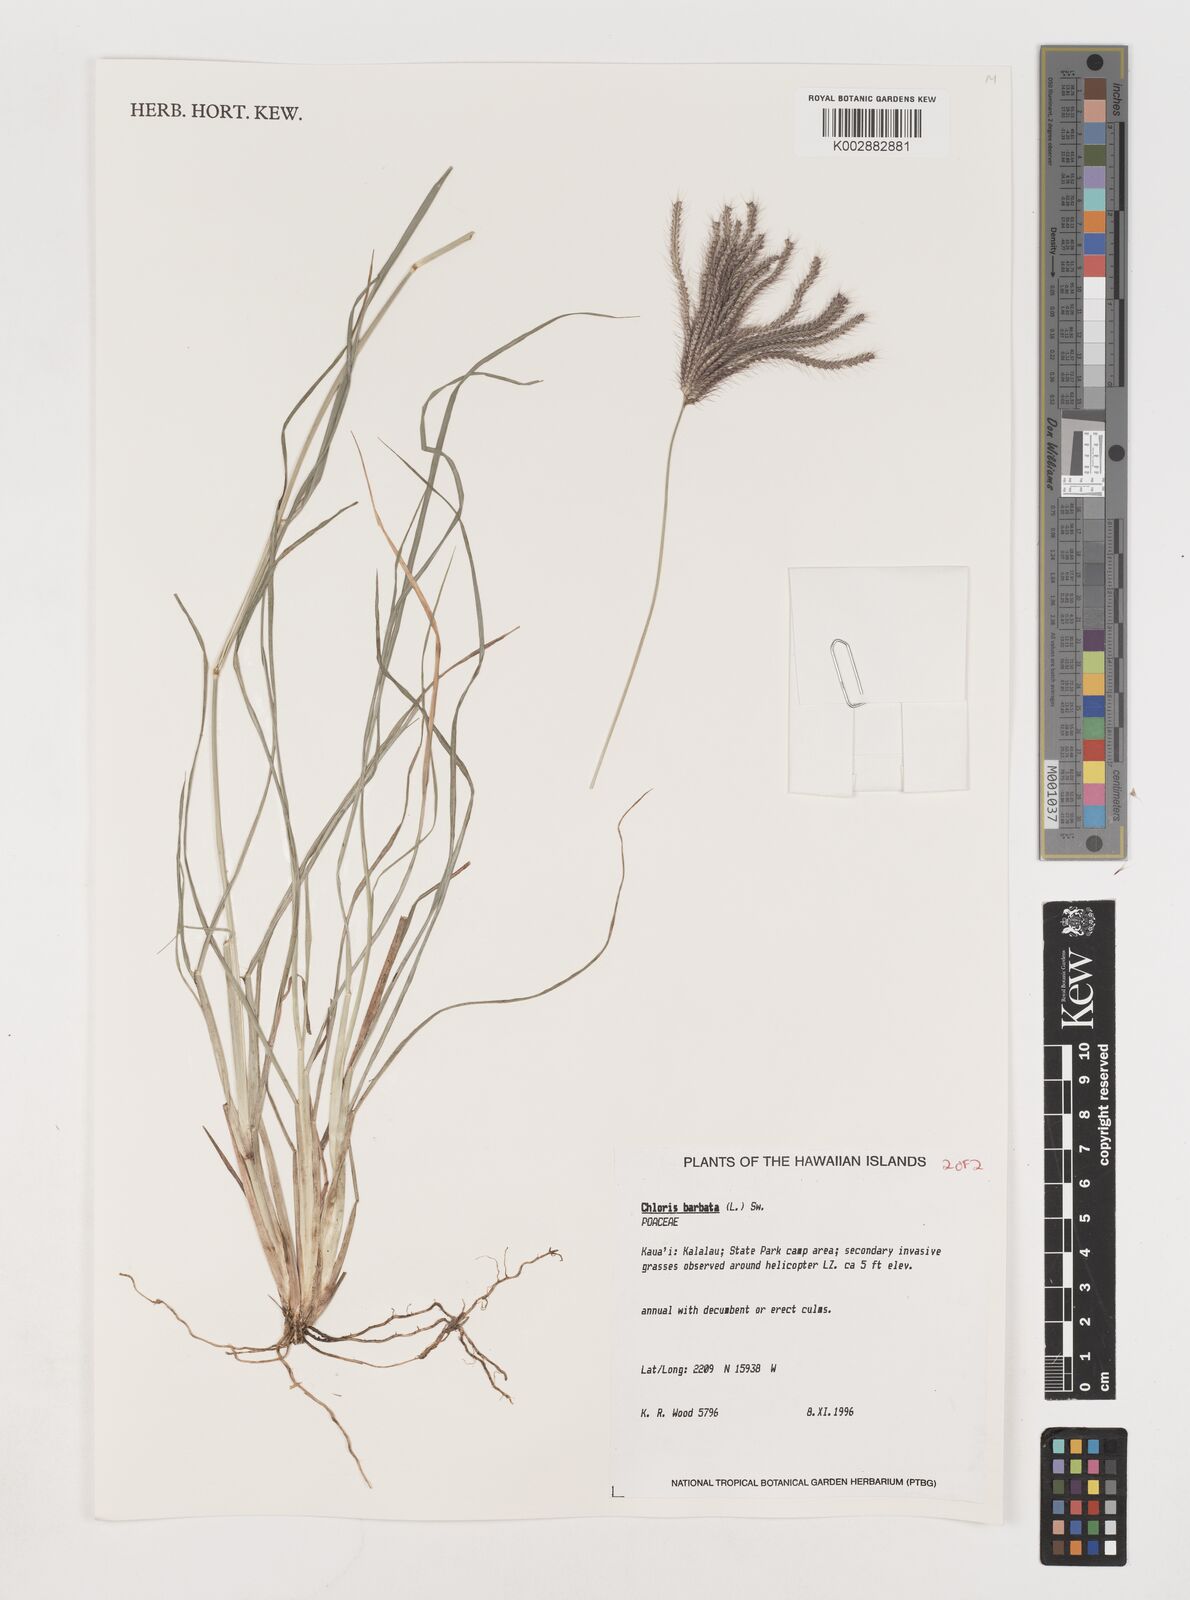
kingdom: Plantae
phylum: Tracheophyta
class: Liliopsida
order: Poales
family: Poaceae
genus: Chloris
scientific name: Chloris barbata
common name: Swollen fingergrass
